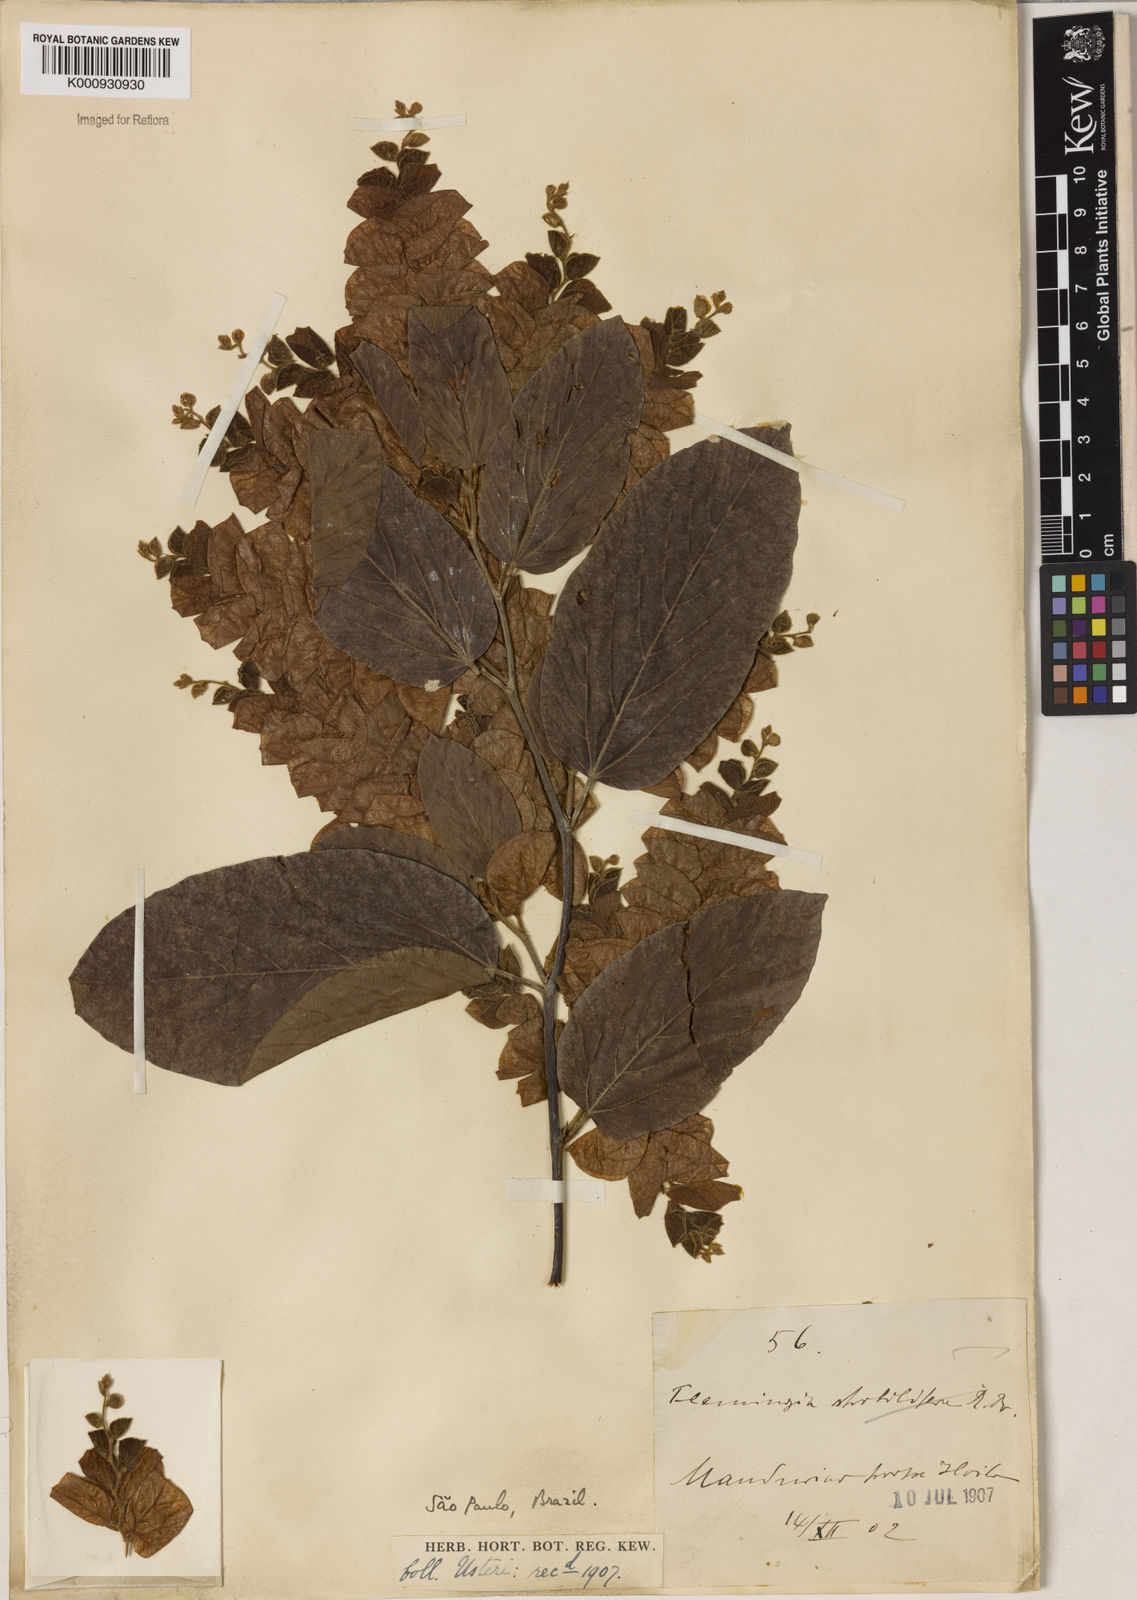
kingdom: Plantae
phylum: Tracheophyta
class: Magnoliopsida
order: Fabales
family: Fabaceae
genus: Flemingia
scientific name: Flemingia
